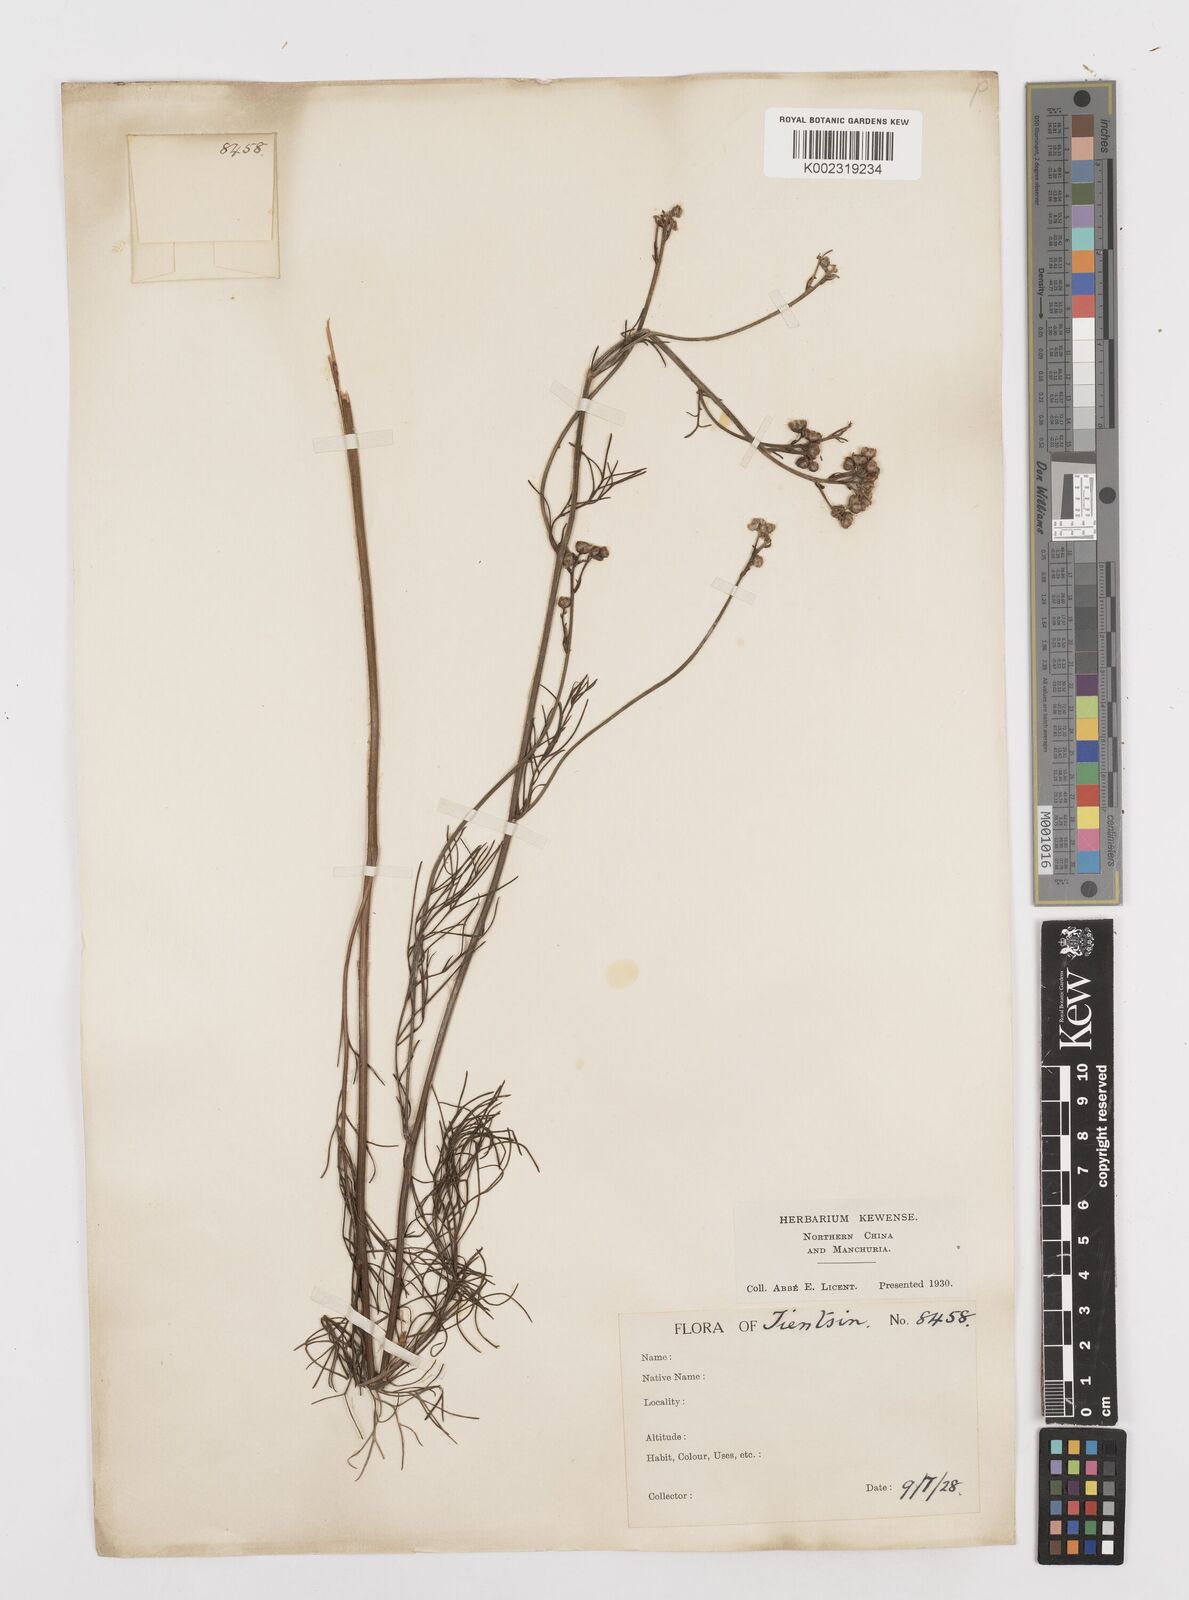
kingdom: Plantae
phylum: Tracheophyta
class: Magnoliopsida
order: Asterales
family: Asteraceae
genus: Filifolium
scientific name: Filifolium sibiricum
